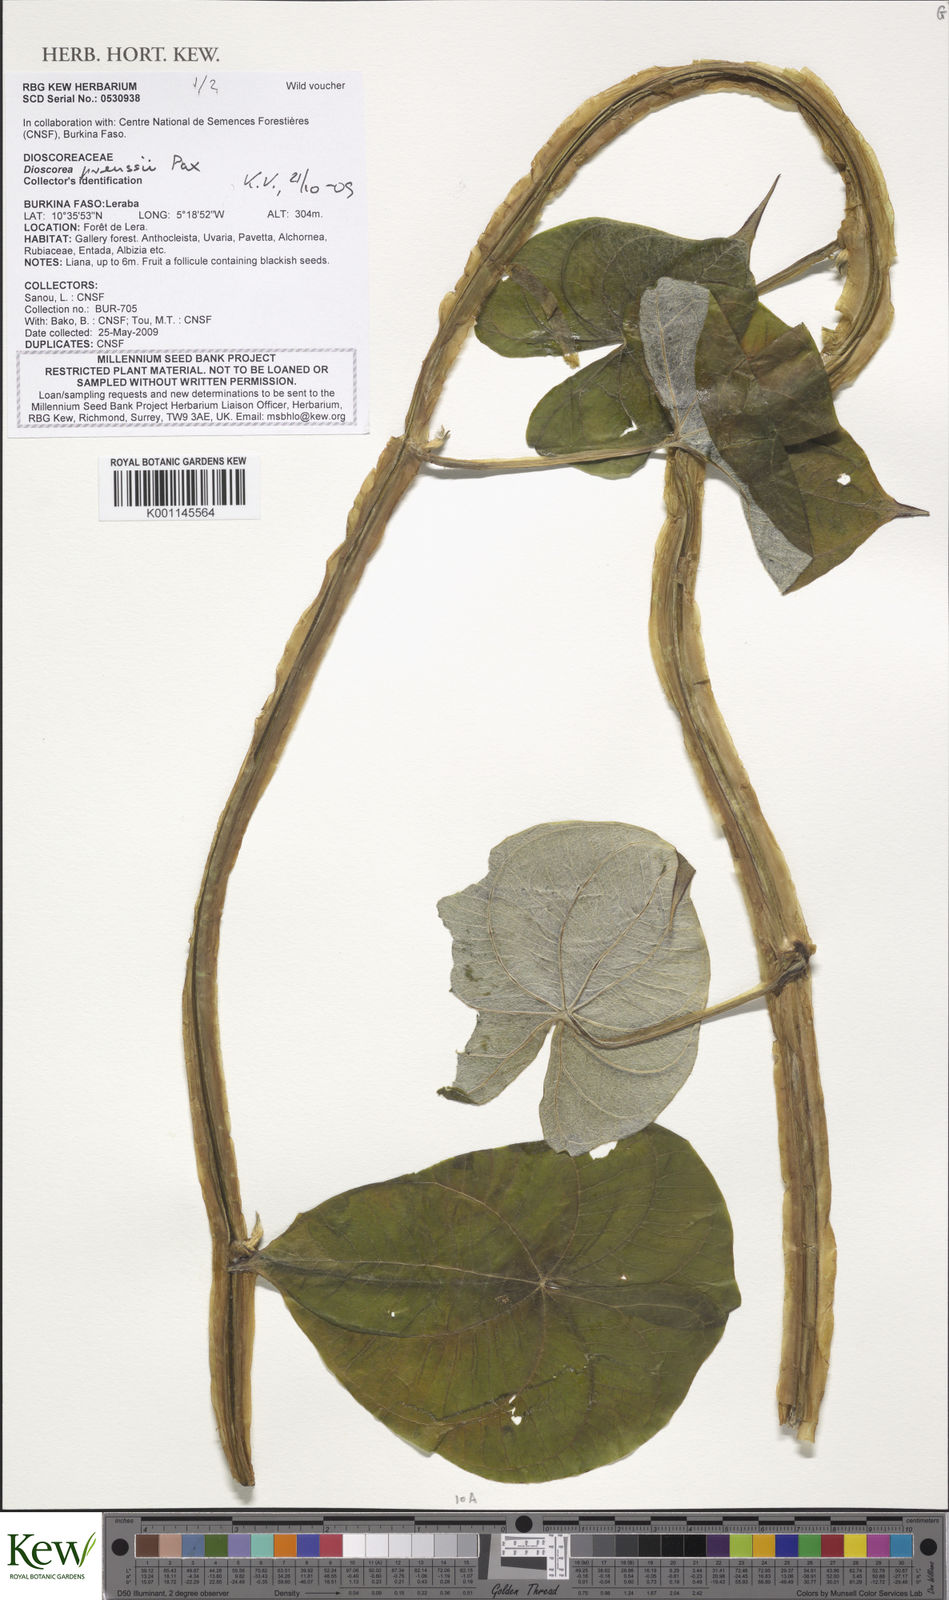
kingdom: Plantae
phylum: Tracheophyta
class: Liliopsida
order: Dioscoreales
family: Dioscoreaceae
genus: Dioscorea
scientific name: Dioscorea preussii
